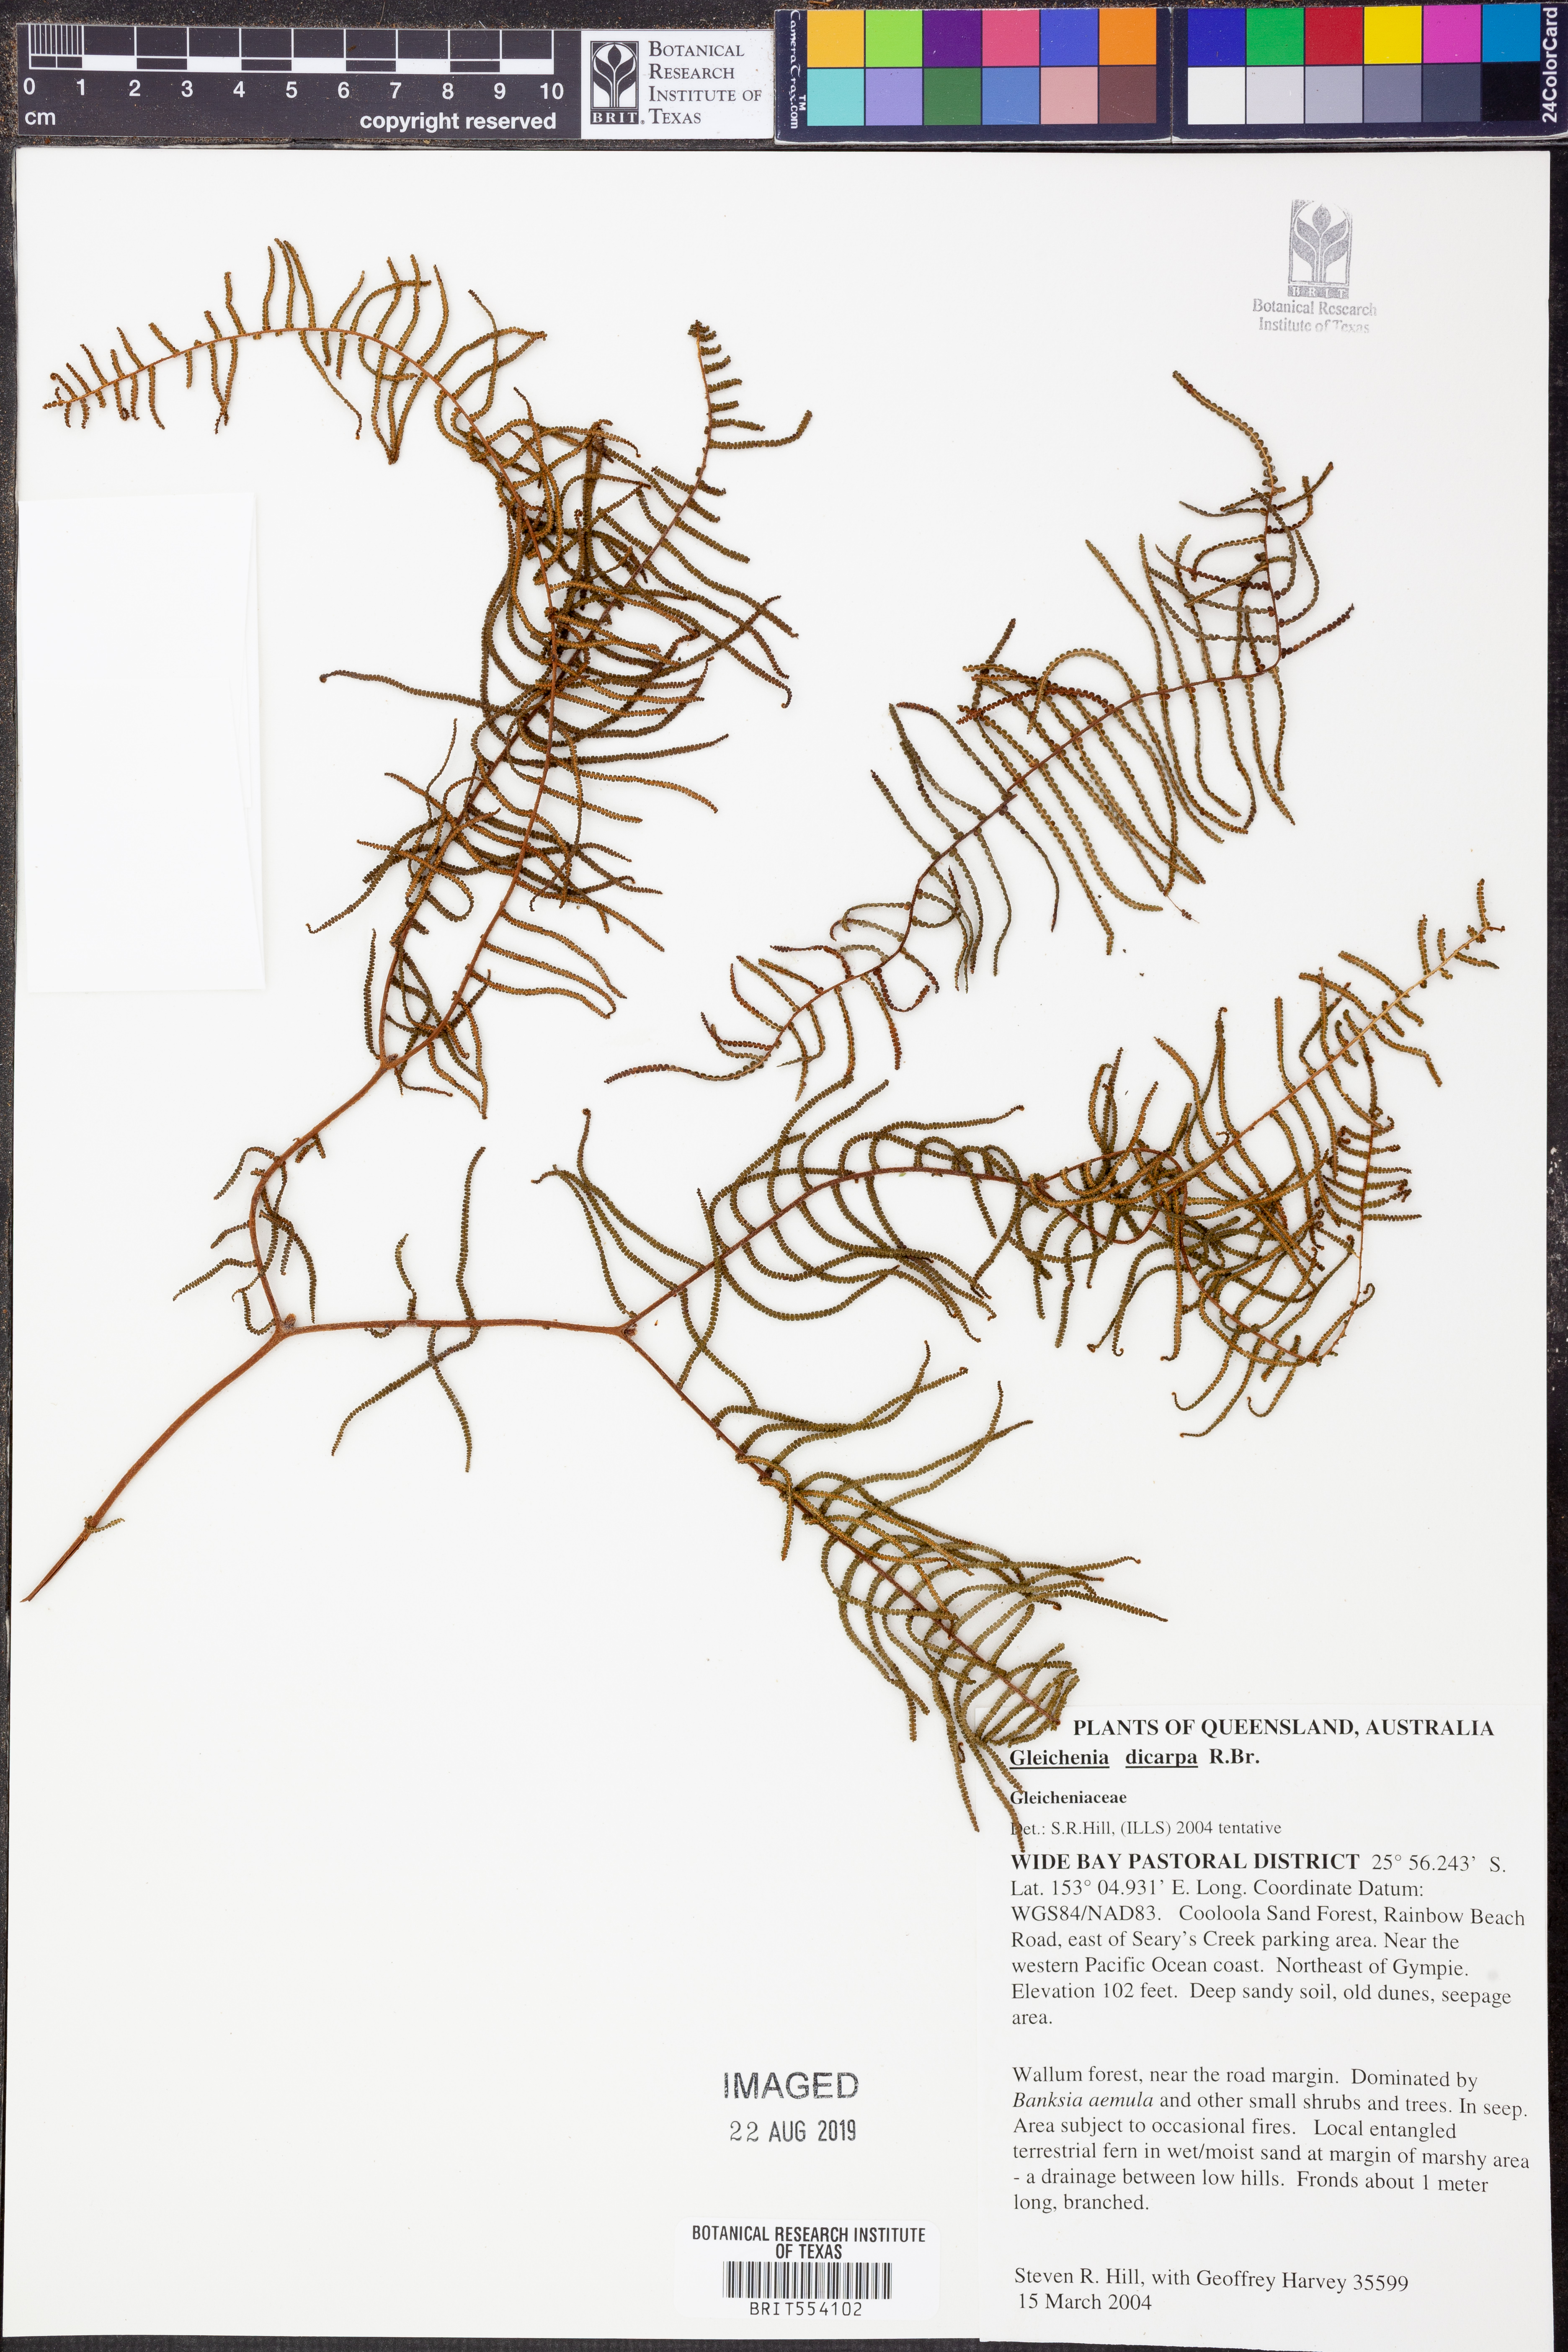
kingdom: Plantae
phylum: Tracheophyta
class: Polypodiopsida
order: Gleicheniales
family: Gleicheniaceae
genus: Gleichenia
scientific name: Gleichenia dicarpa
